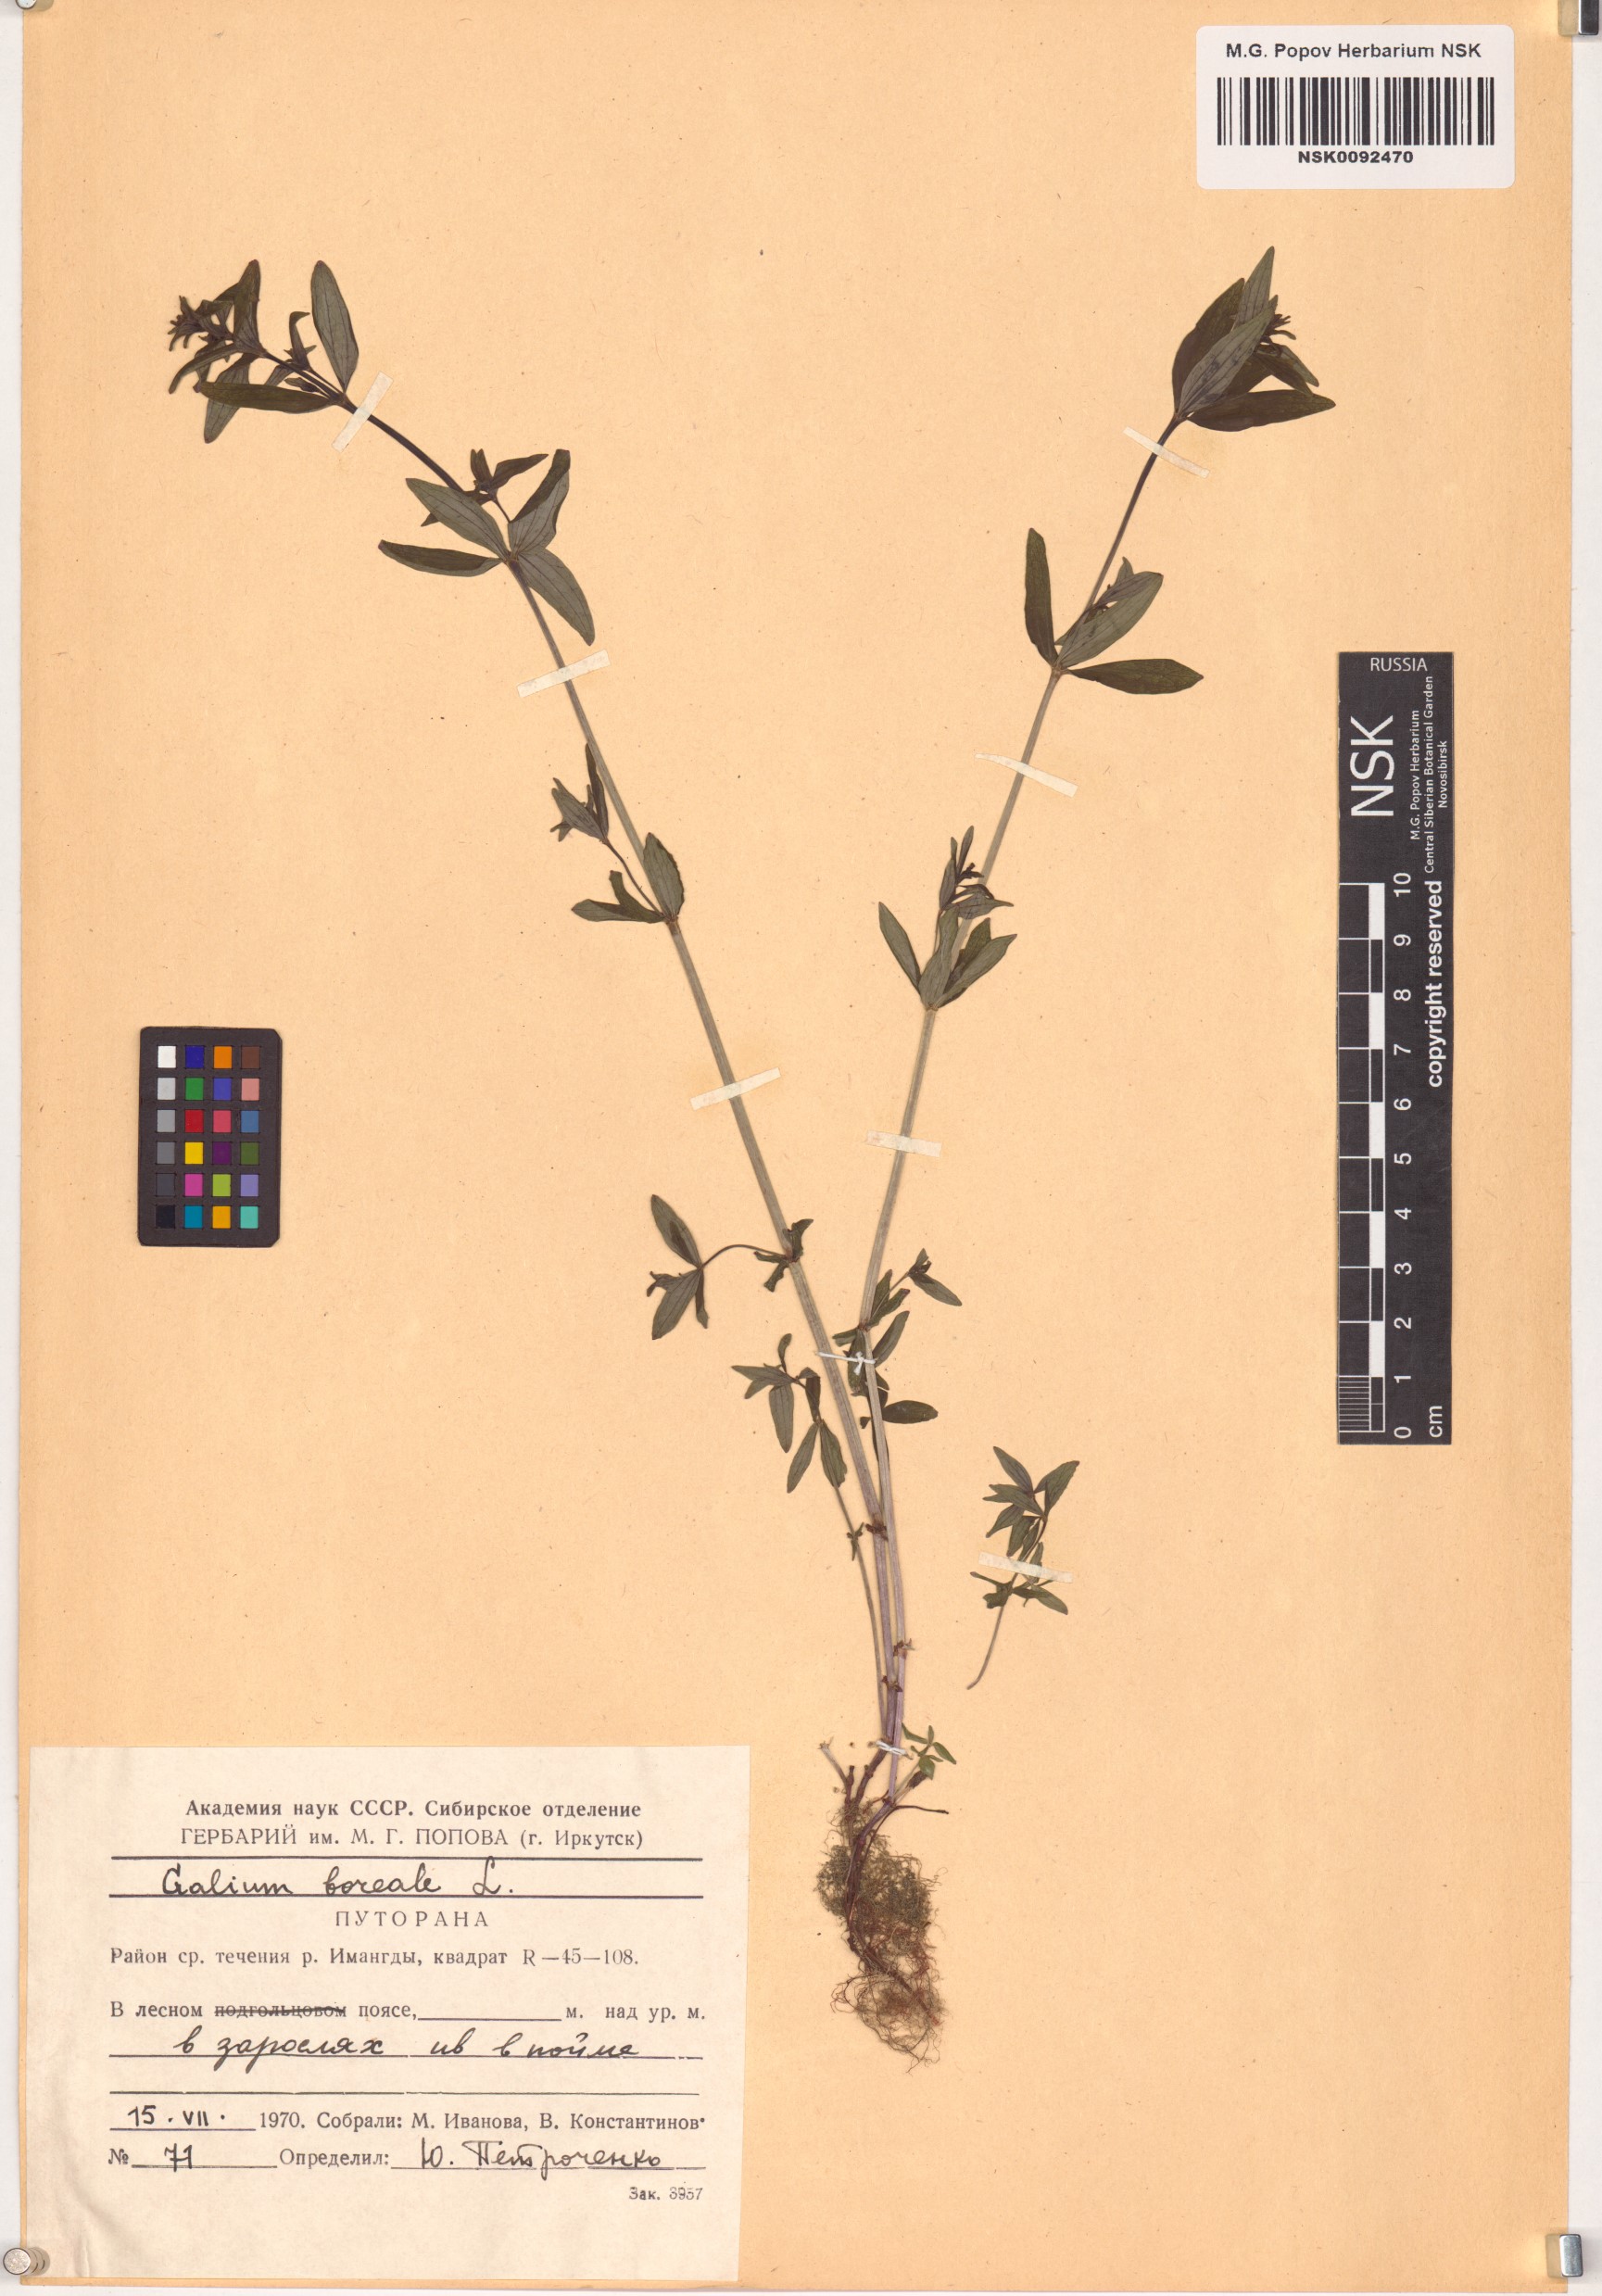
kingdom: Plantae
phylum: Tracheophyta
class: Magnoliopsida
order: Gentianales
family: Rubiaceae
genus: Galium
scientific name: Galium boreale
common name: Northern bedstraw
